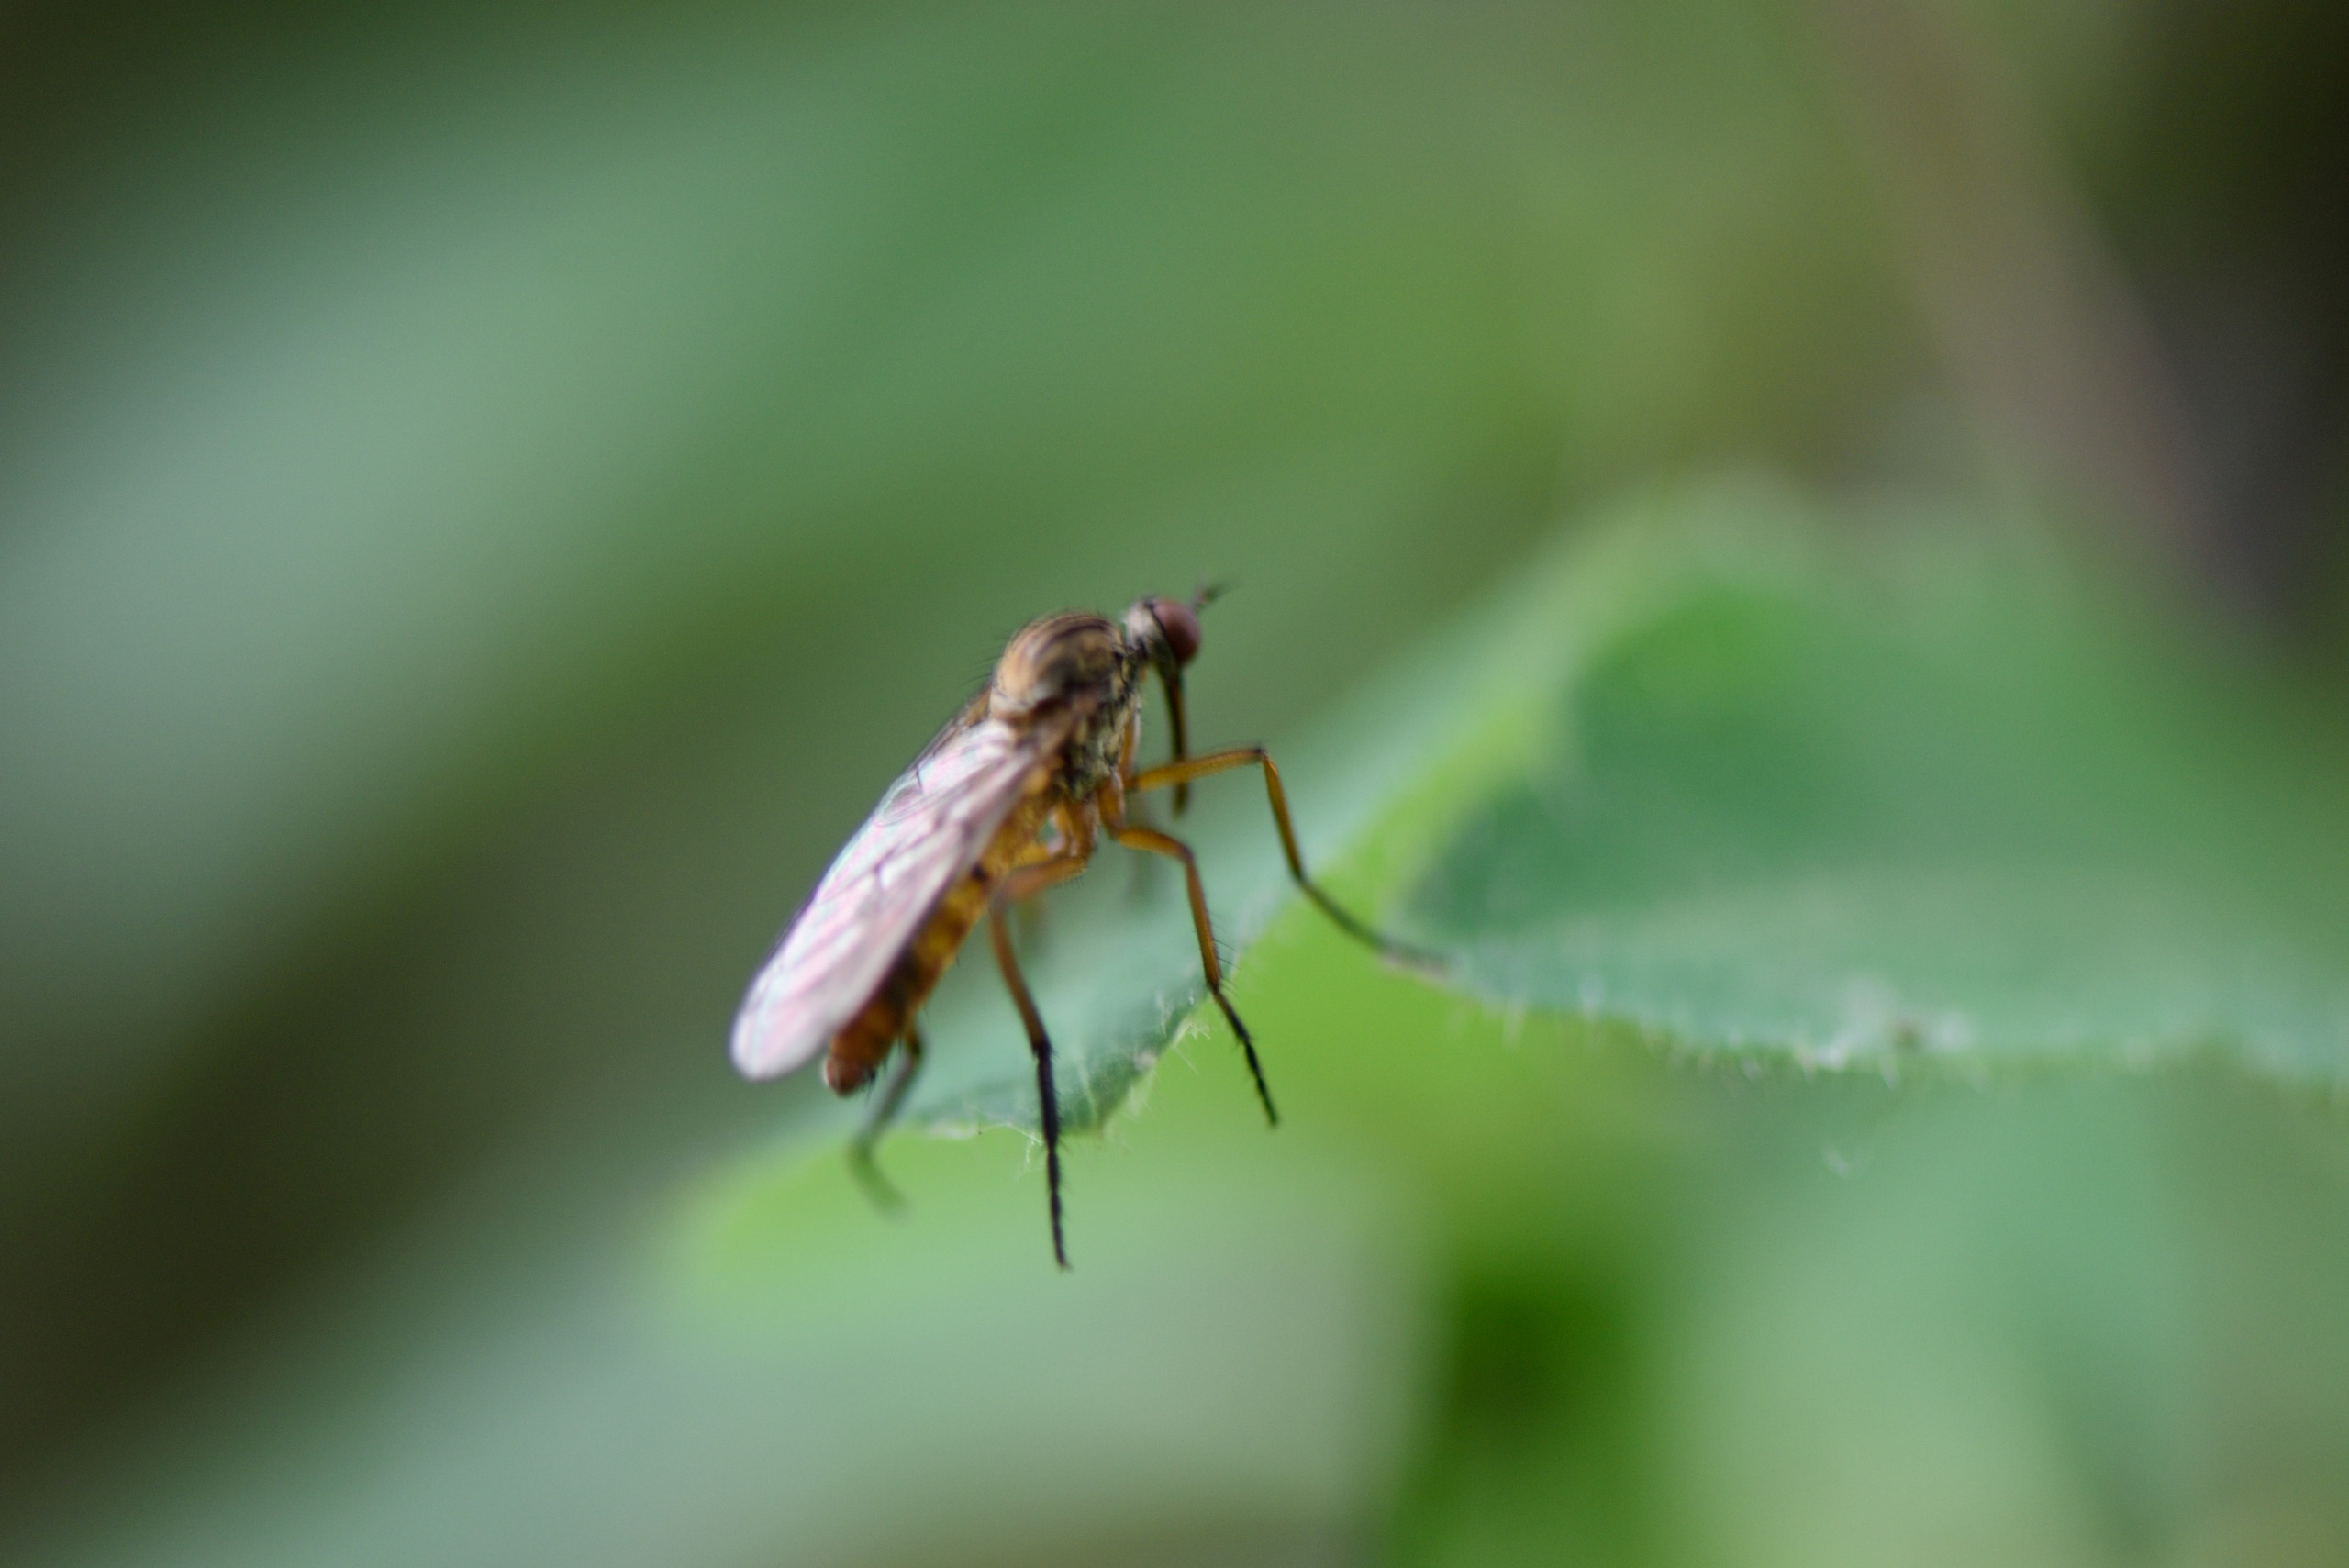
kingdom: Animalia
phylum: Arthropoda
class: Insecta
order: Diptera
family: Empididae
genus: Empis
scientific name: Empis livida
